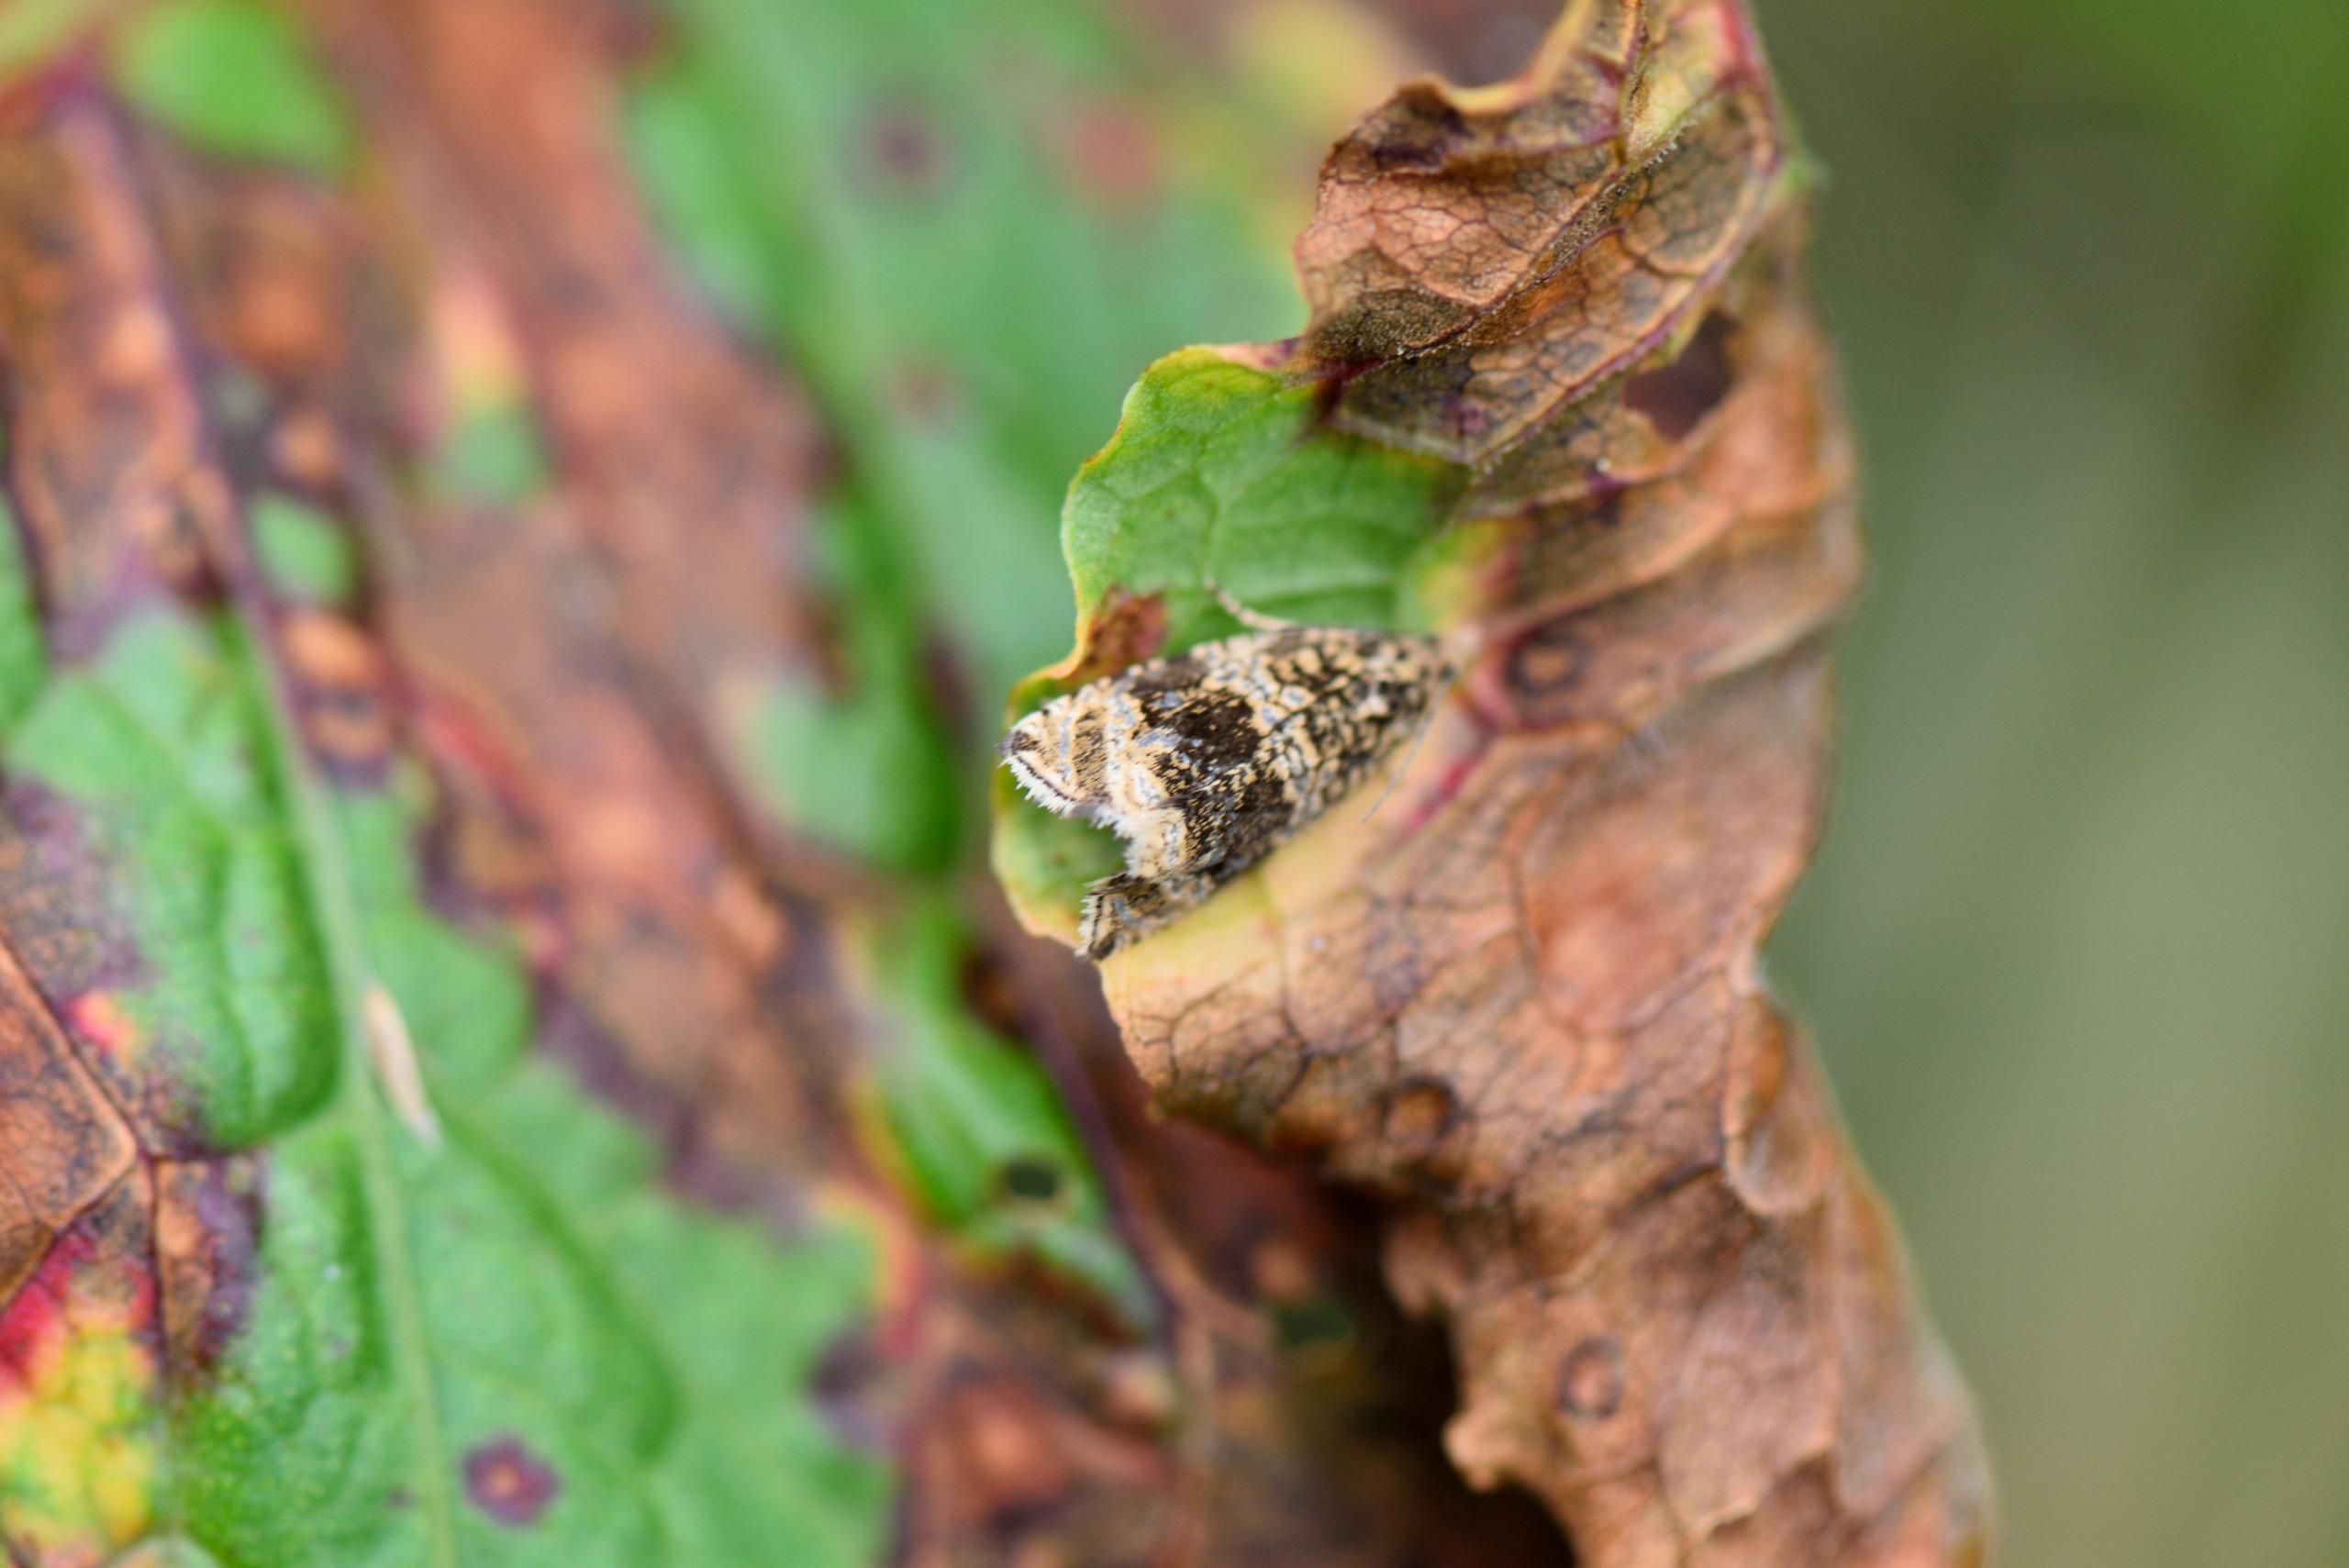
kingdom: Animalia
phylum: Arthropoda
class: Insecta
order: Lepidoptera
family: Tortricidae
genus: Syricoris
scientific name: Syricoris lacunana
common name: Rød jordbærvikler
